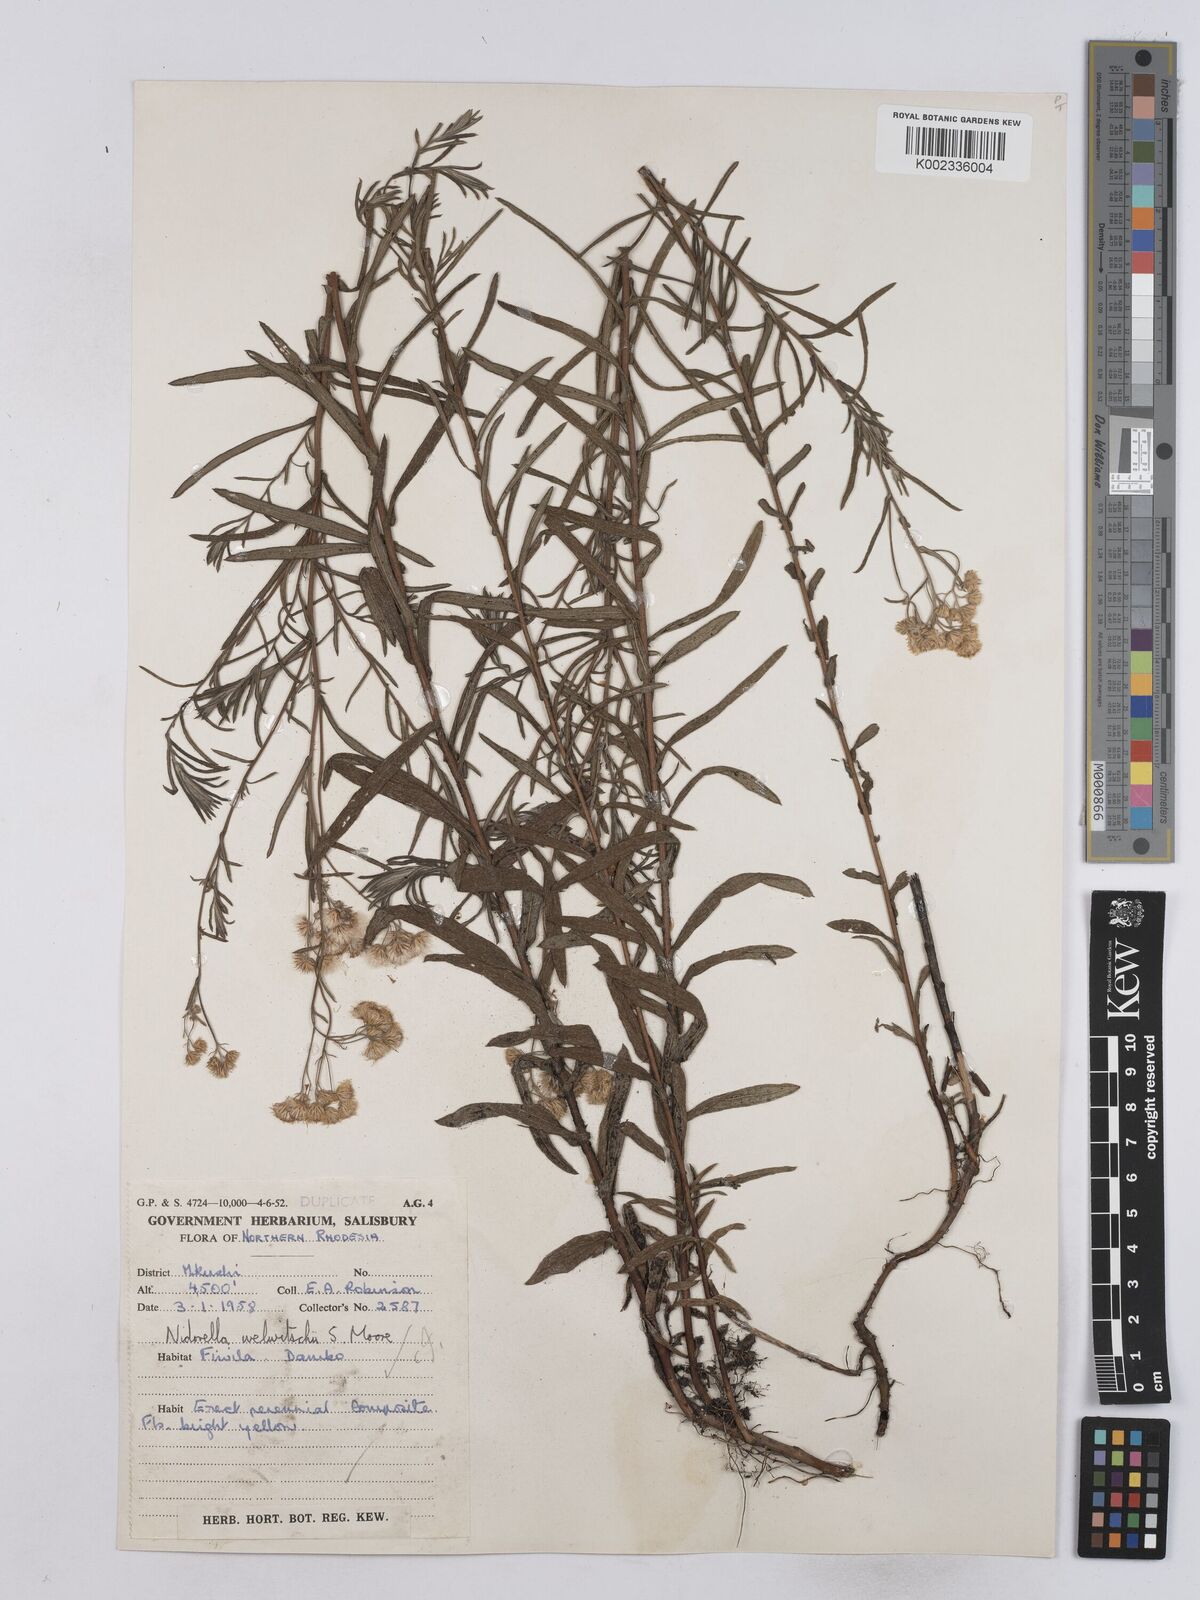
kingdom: Plantae
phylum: Tracheophyta
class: Magnoliopsida
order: Asterales
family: Asteraceae
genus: Nidorella
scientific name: Nidorella welwitschii
